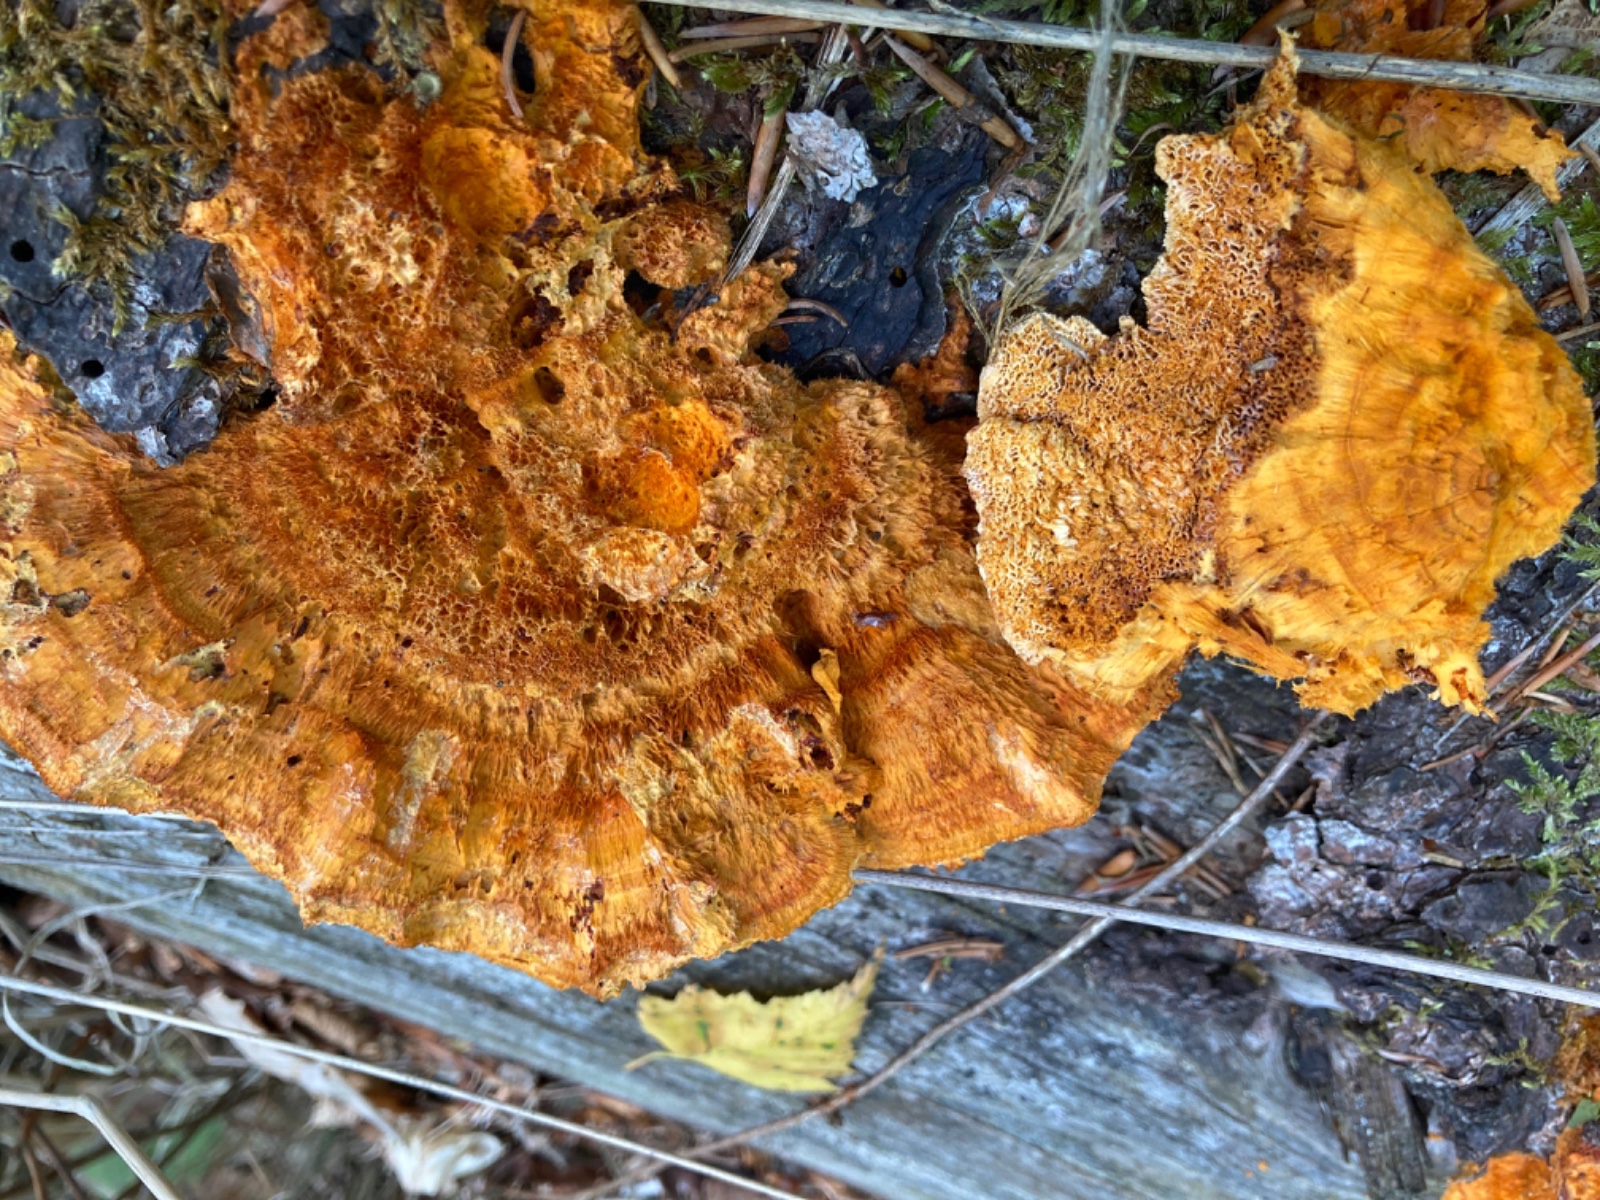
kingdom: Fungi
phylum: Basidiomycota
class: Agaricomycetes
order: Polyporales
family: Pycnoporellaceae
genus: Pycnoporellus
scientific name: Pycnoporellus fulgens
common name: flammeporesvamp
